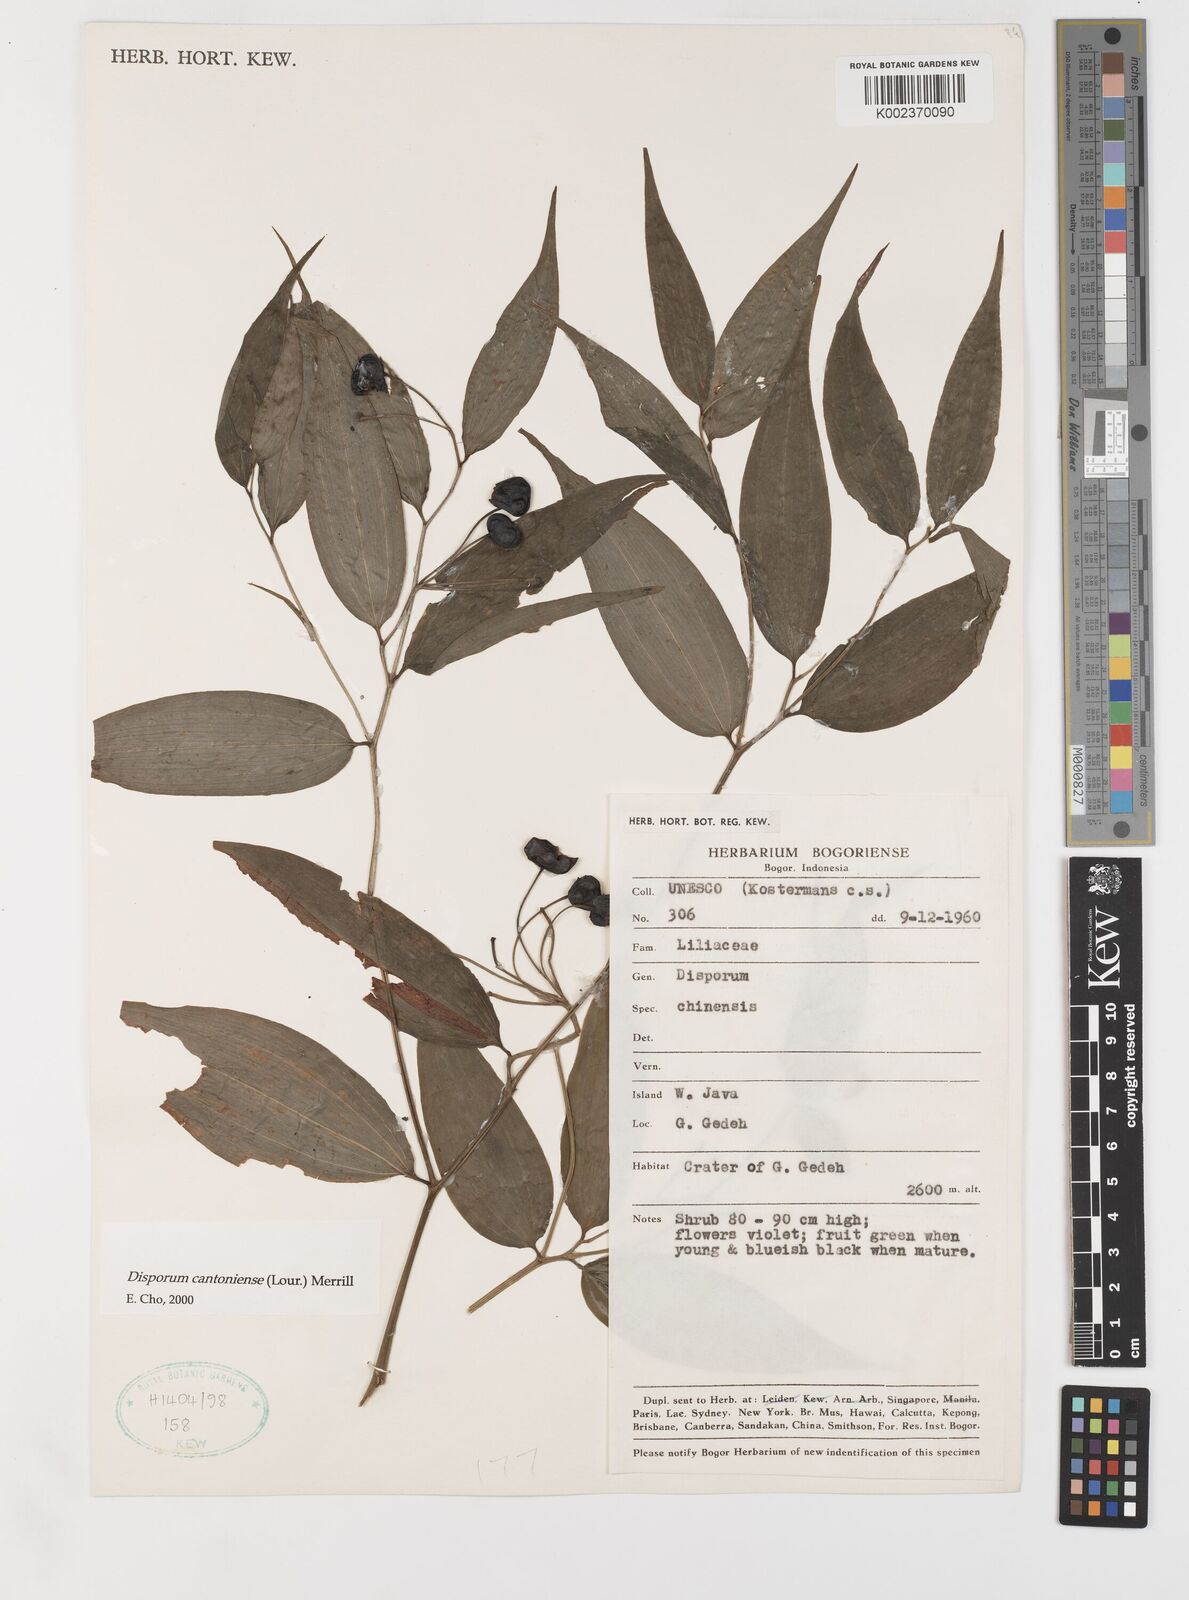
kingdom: Plantae
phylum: Tracheophyta
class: Liliopsida
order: Liliales
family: Colchicaceae
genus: Disporum
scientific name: Disporum cantoniense
